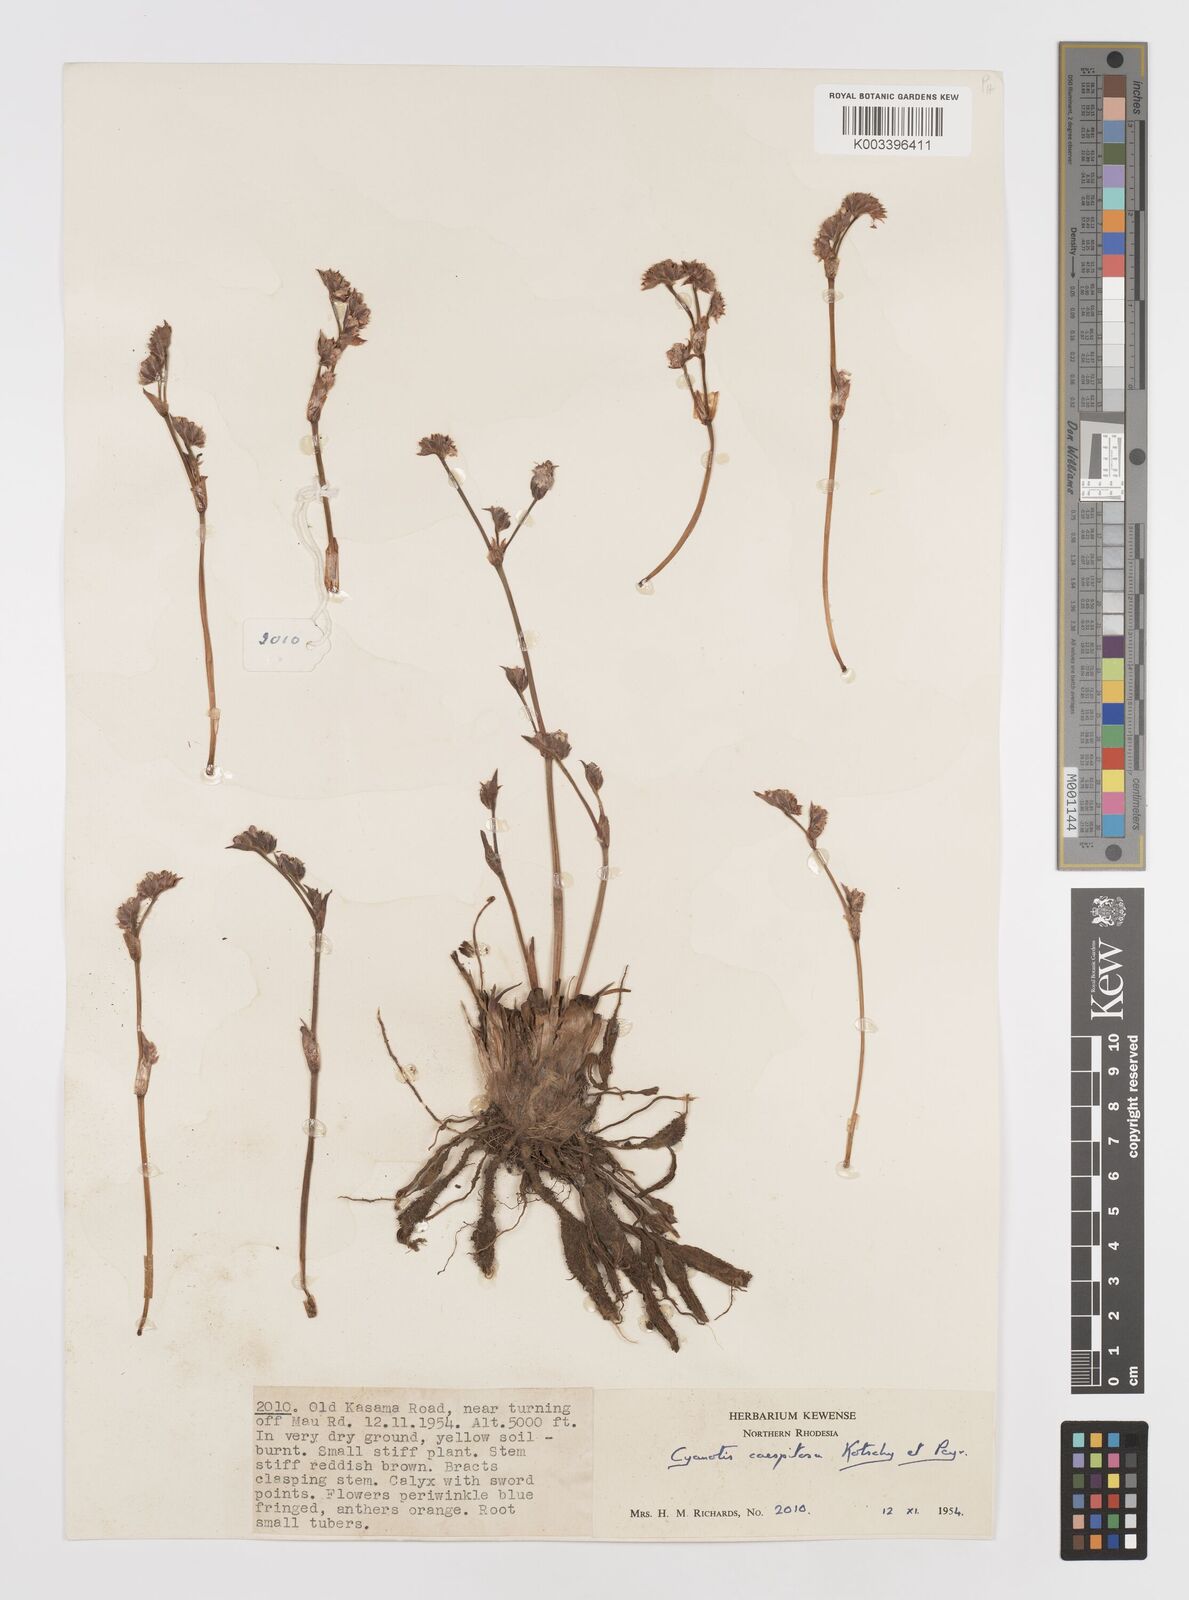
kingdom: Plantae
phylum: Tracheophyta
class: Liliopsida
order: Commelinales
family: Commelinaceae
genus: Cyanotis
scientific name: Cyanotis caespitosa
